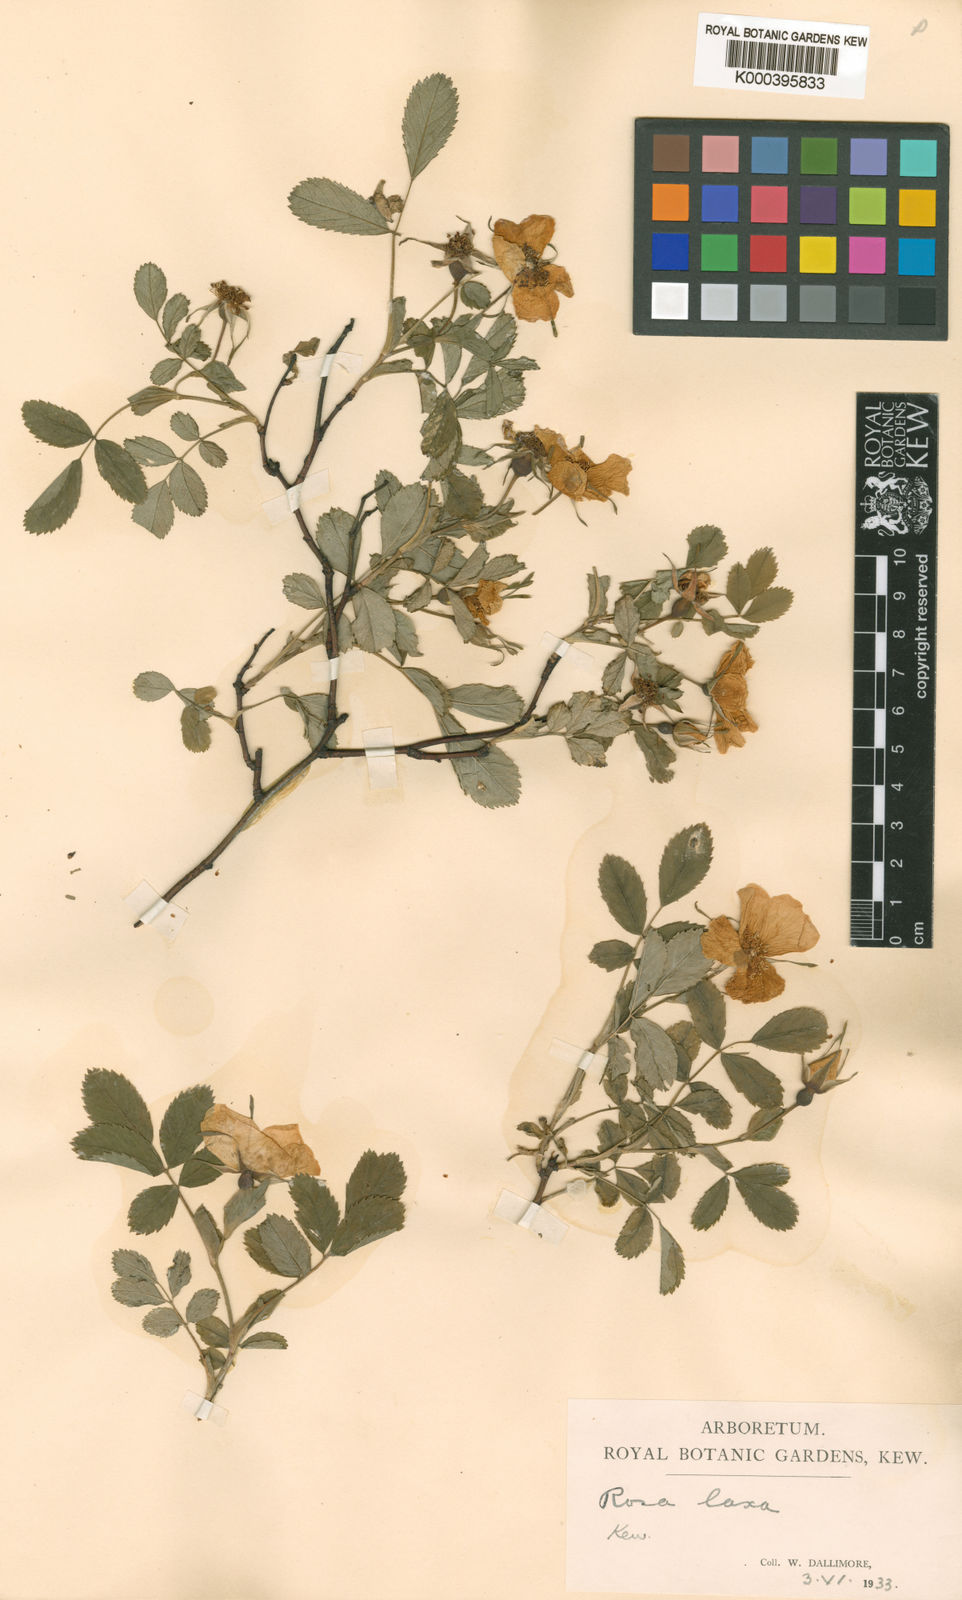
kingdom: Plantae
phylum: Tracheophyta
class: Magnoliopsida
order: Rosales
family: Rosaceae
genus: Rosa
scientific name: Rosa laxa
